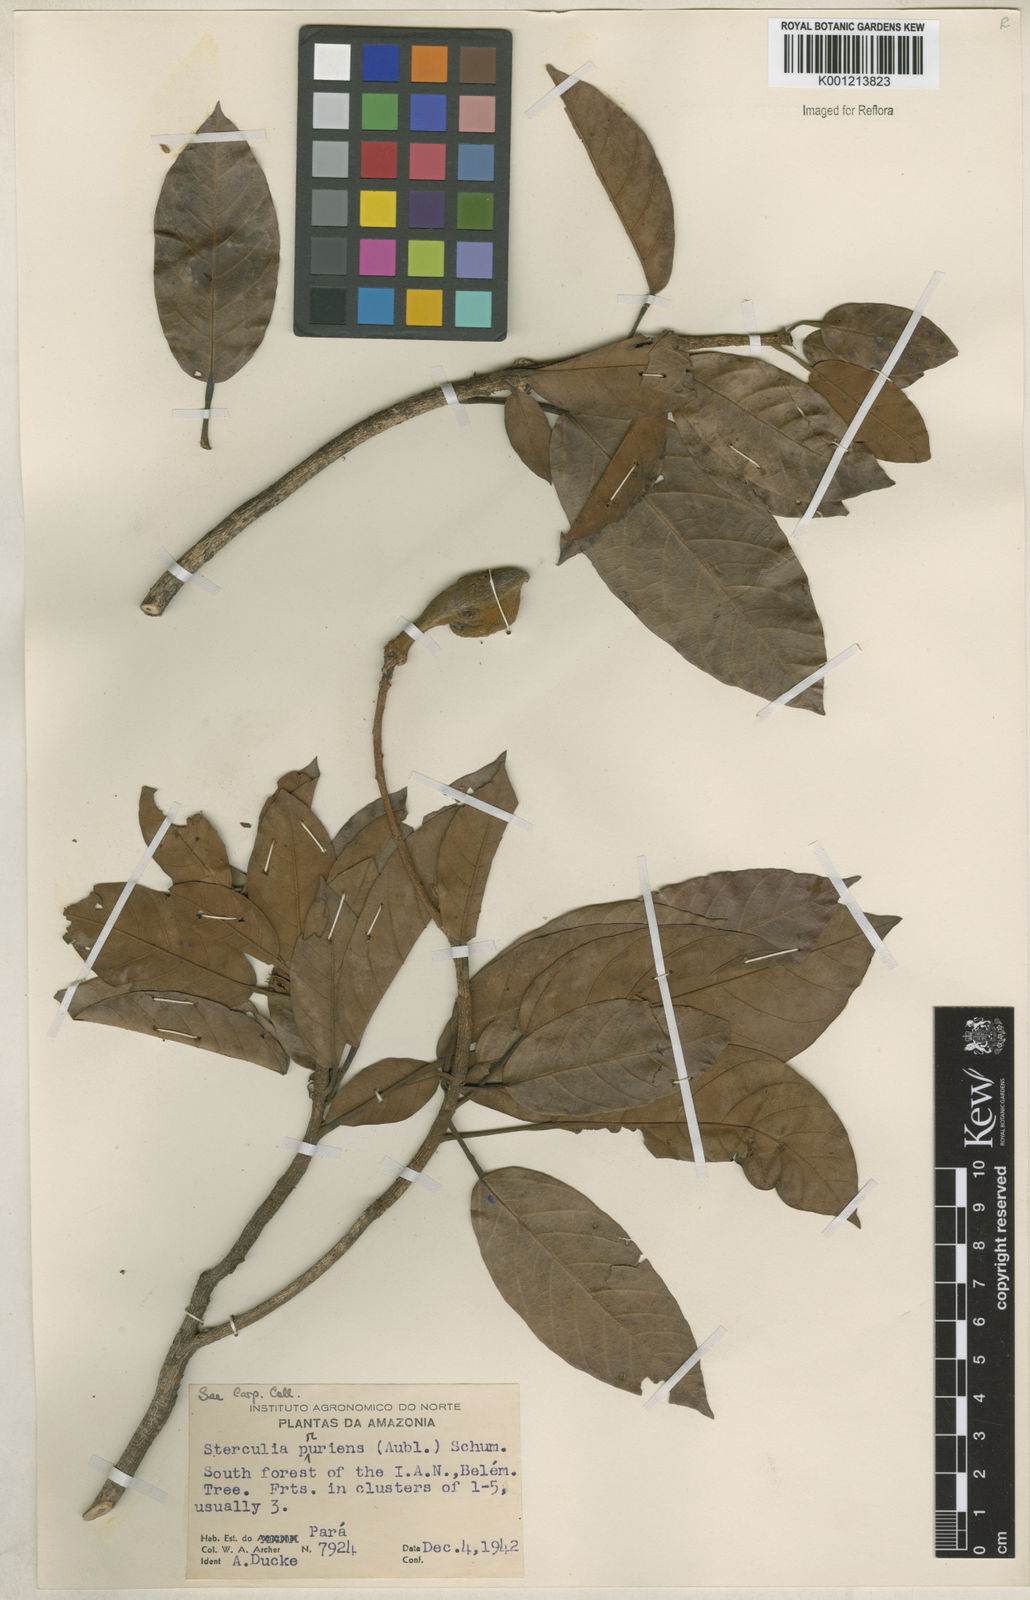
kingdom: Plantae
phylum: Tracheophyta
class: Magnoliopsida
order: Malvales
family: Malvaceae
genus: Sterculia
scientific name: Sterculia pruriens
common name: Grand mahot
